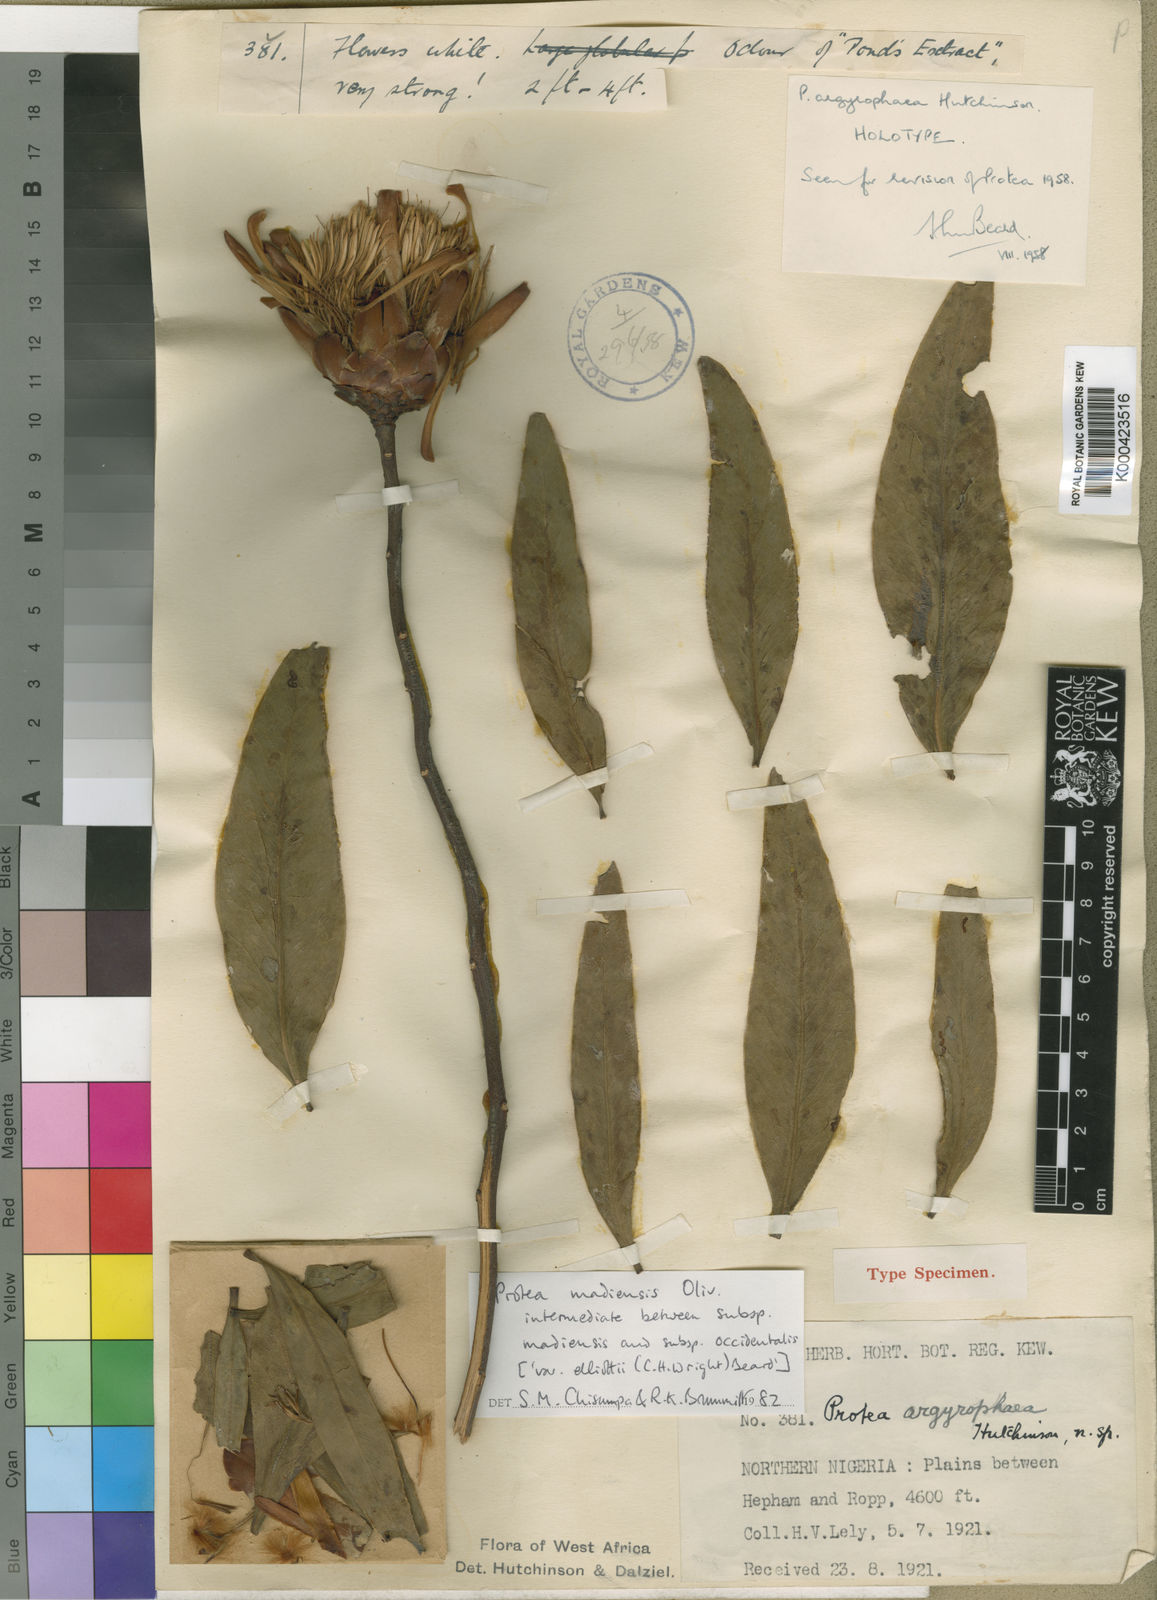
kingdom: Plantae
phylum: Tracheophyta
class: Magnoliopsida
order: Proteales
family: Proteaceae
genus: Protea
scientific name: Protea madiensis
